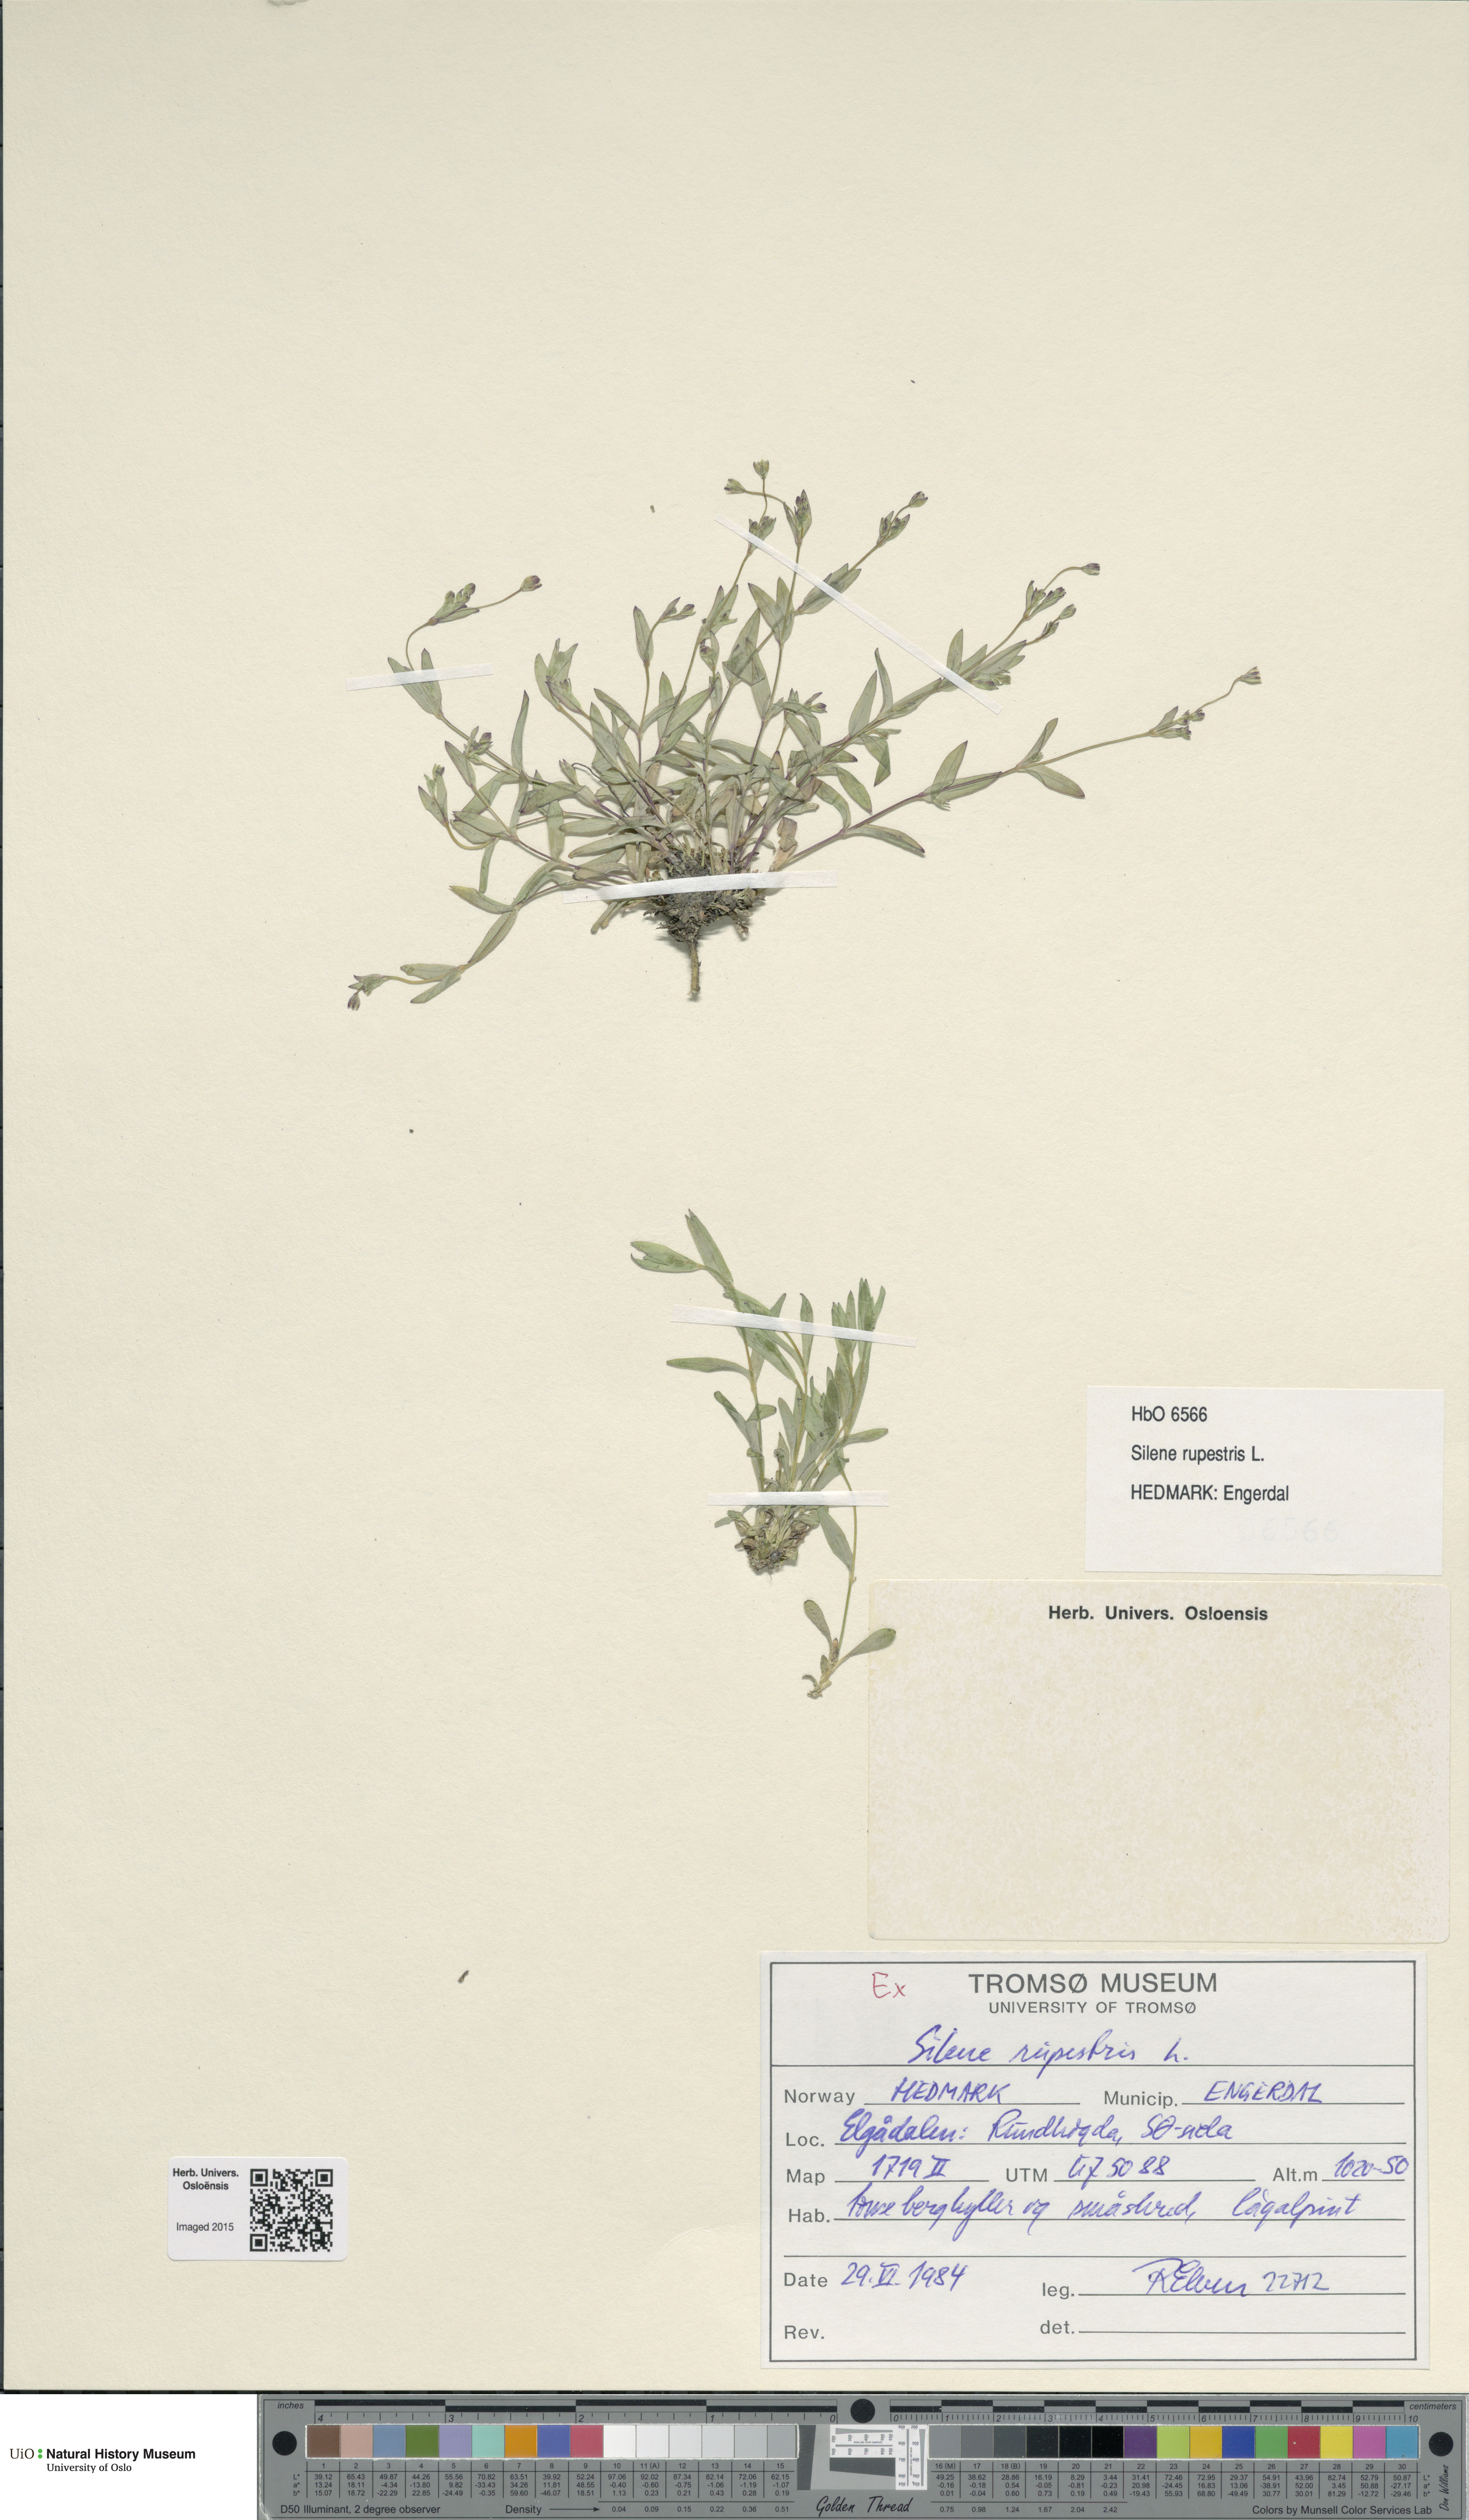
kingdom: Plantae
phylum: Tracheophyta
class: Magnoliopsida
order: Caryophyllales
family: Caryophyllaceae
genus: Atocion
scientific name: Atocion rupestre
